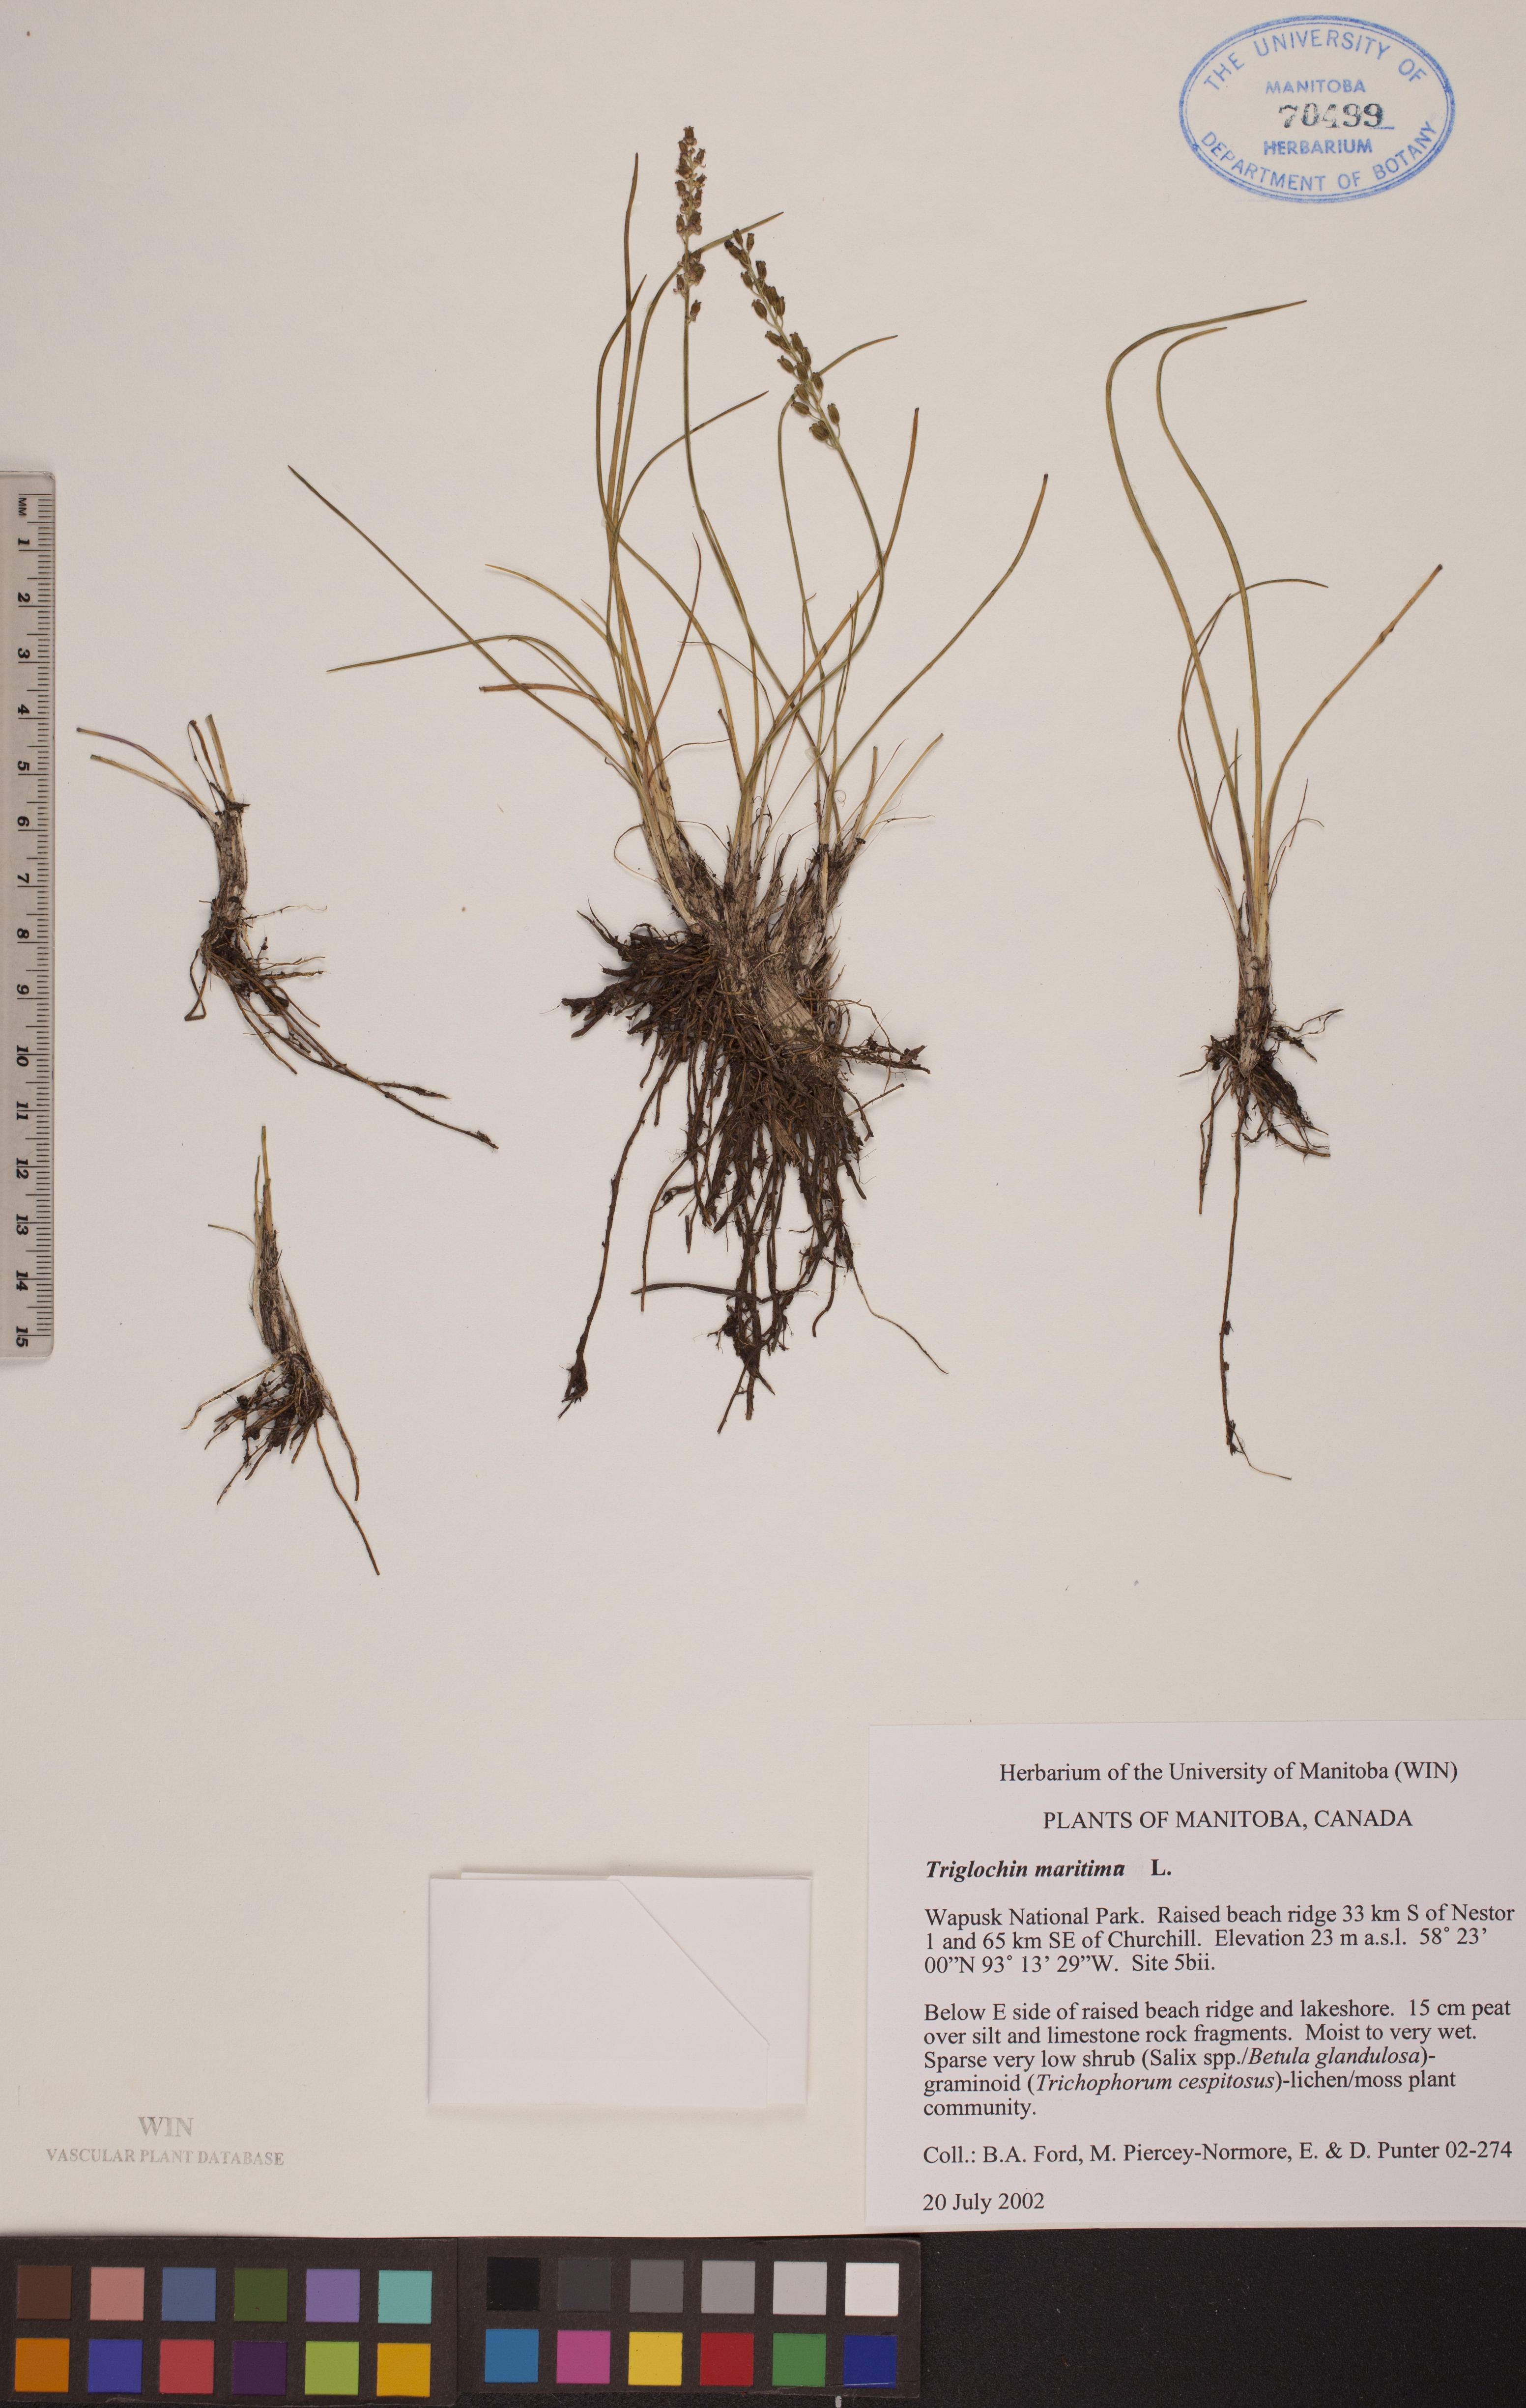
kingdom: Plantae
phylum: Tracheophyta
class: Liliopsida
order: Alismatales
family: Juncaginaceae
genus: Triglochin
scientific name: Triglochin maritima
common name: Sea arrowgrass
